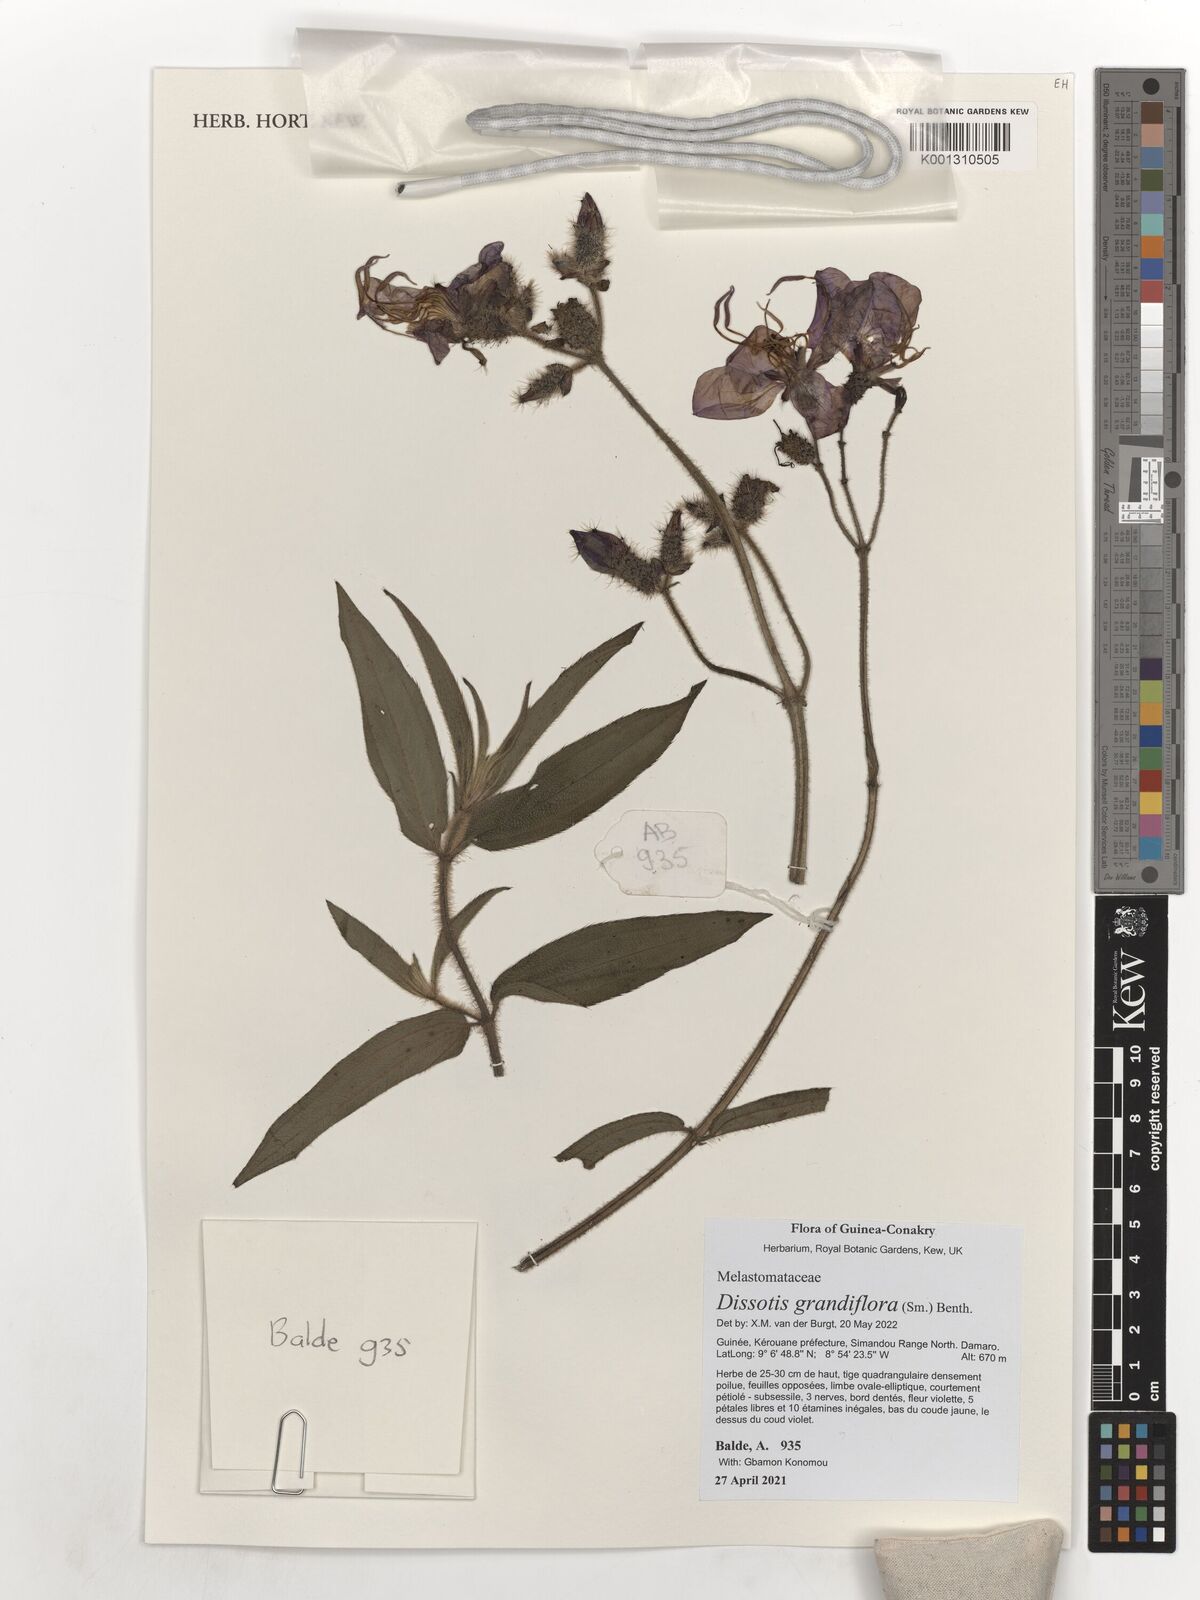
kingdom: Plantae
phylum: Tracheophyta
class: Magnoliopsida
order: Myrtales
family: Melastomataceae
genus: Dissotis
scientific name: Dissotis grandiflora
